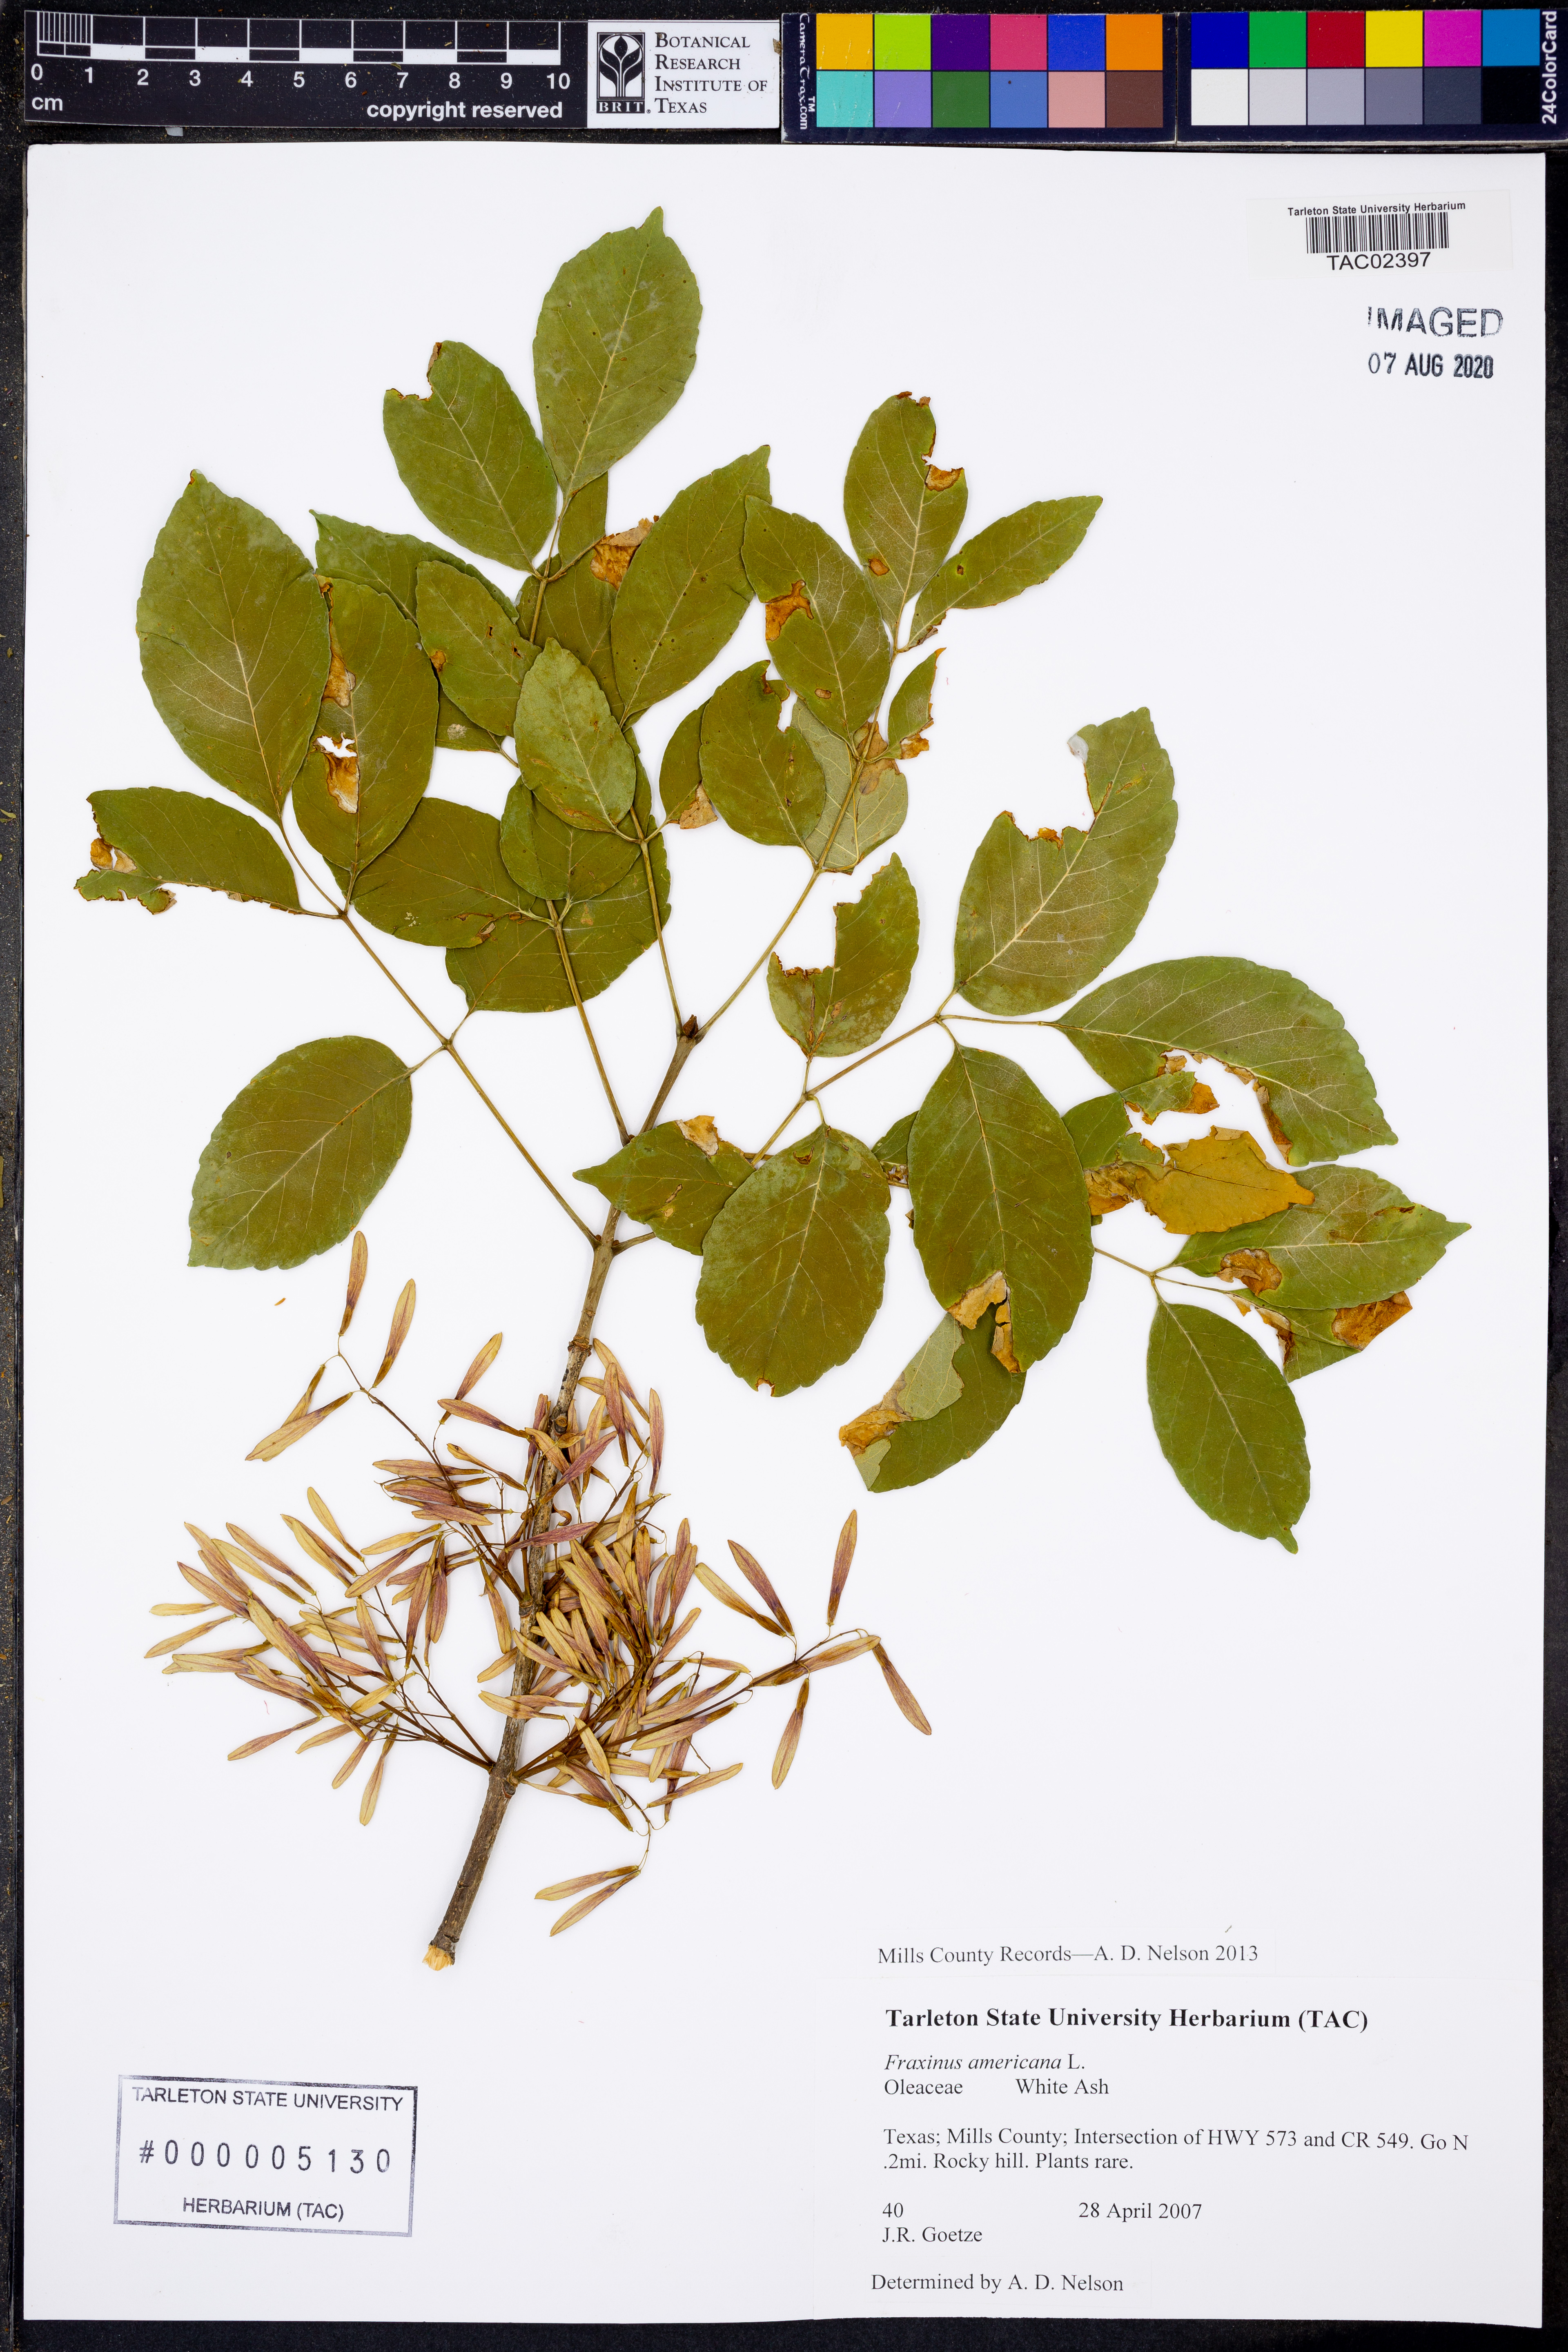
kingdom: Plantae
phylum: Tracheophyta
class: Magnoliopsida
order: Lamiales
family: Oleaceae
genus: Fraxinus
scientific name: Fraxinus americana
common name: White ash
